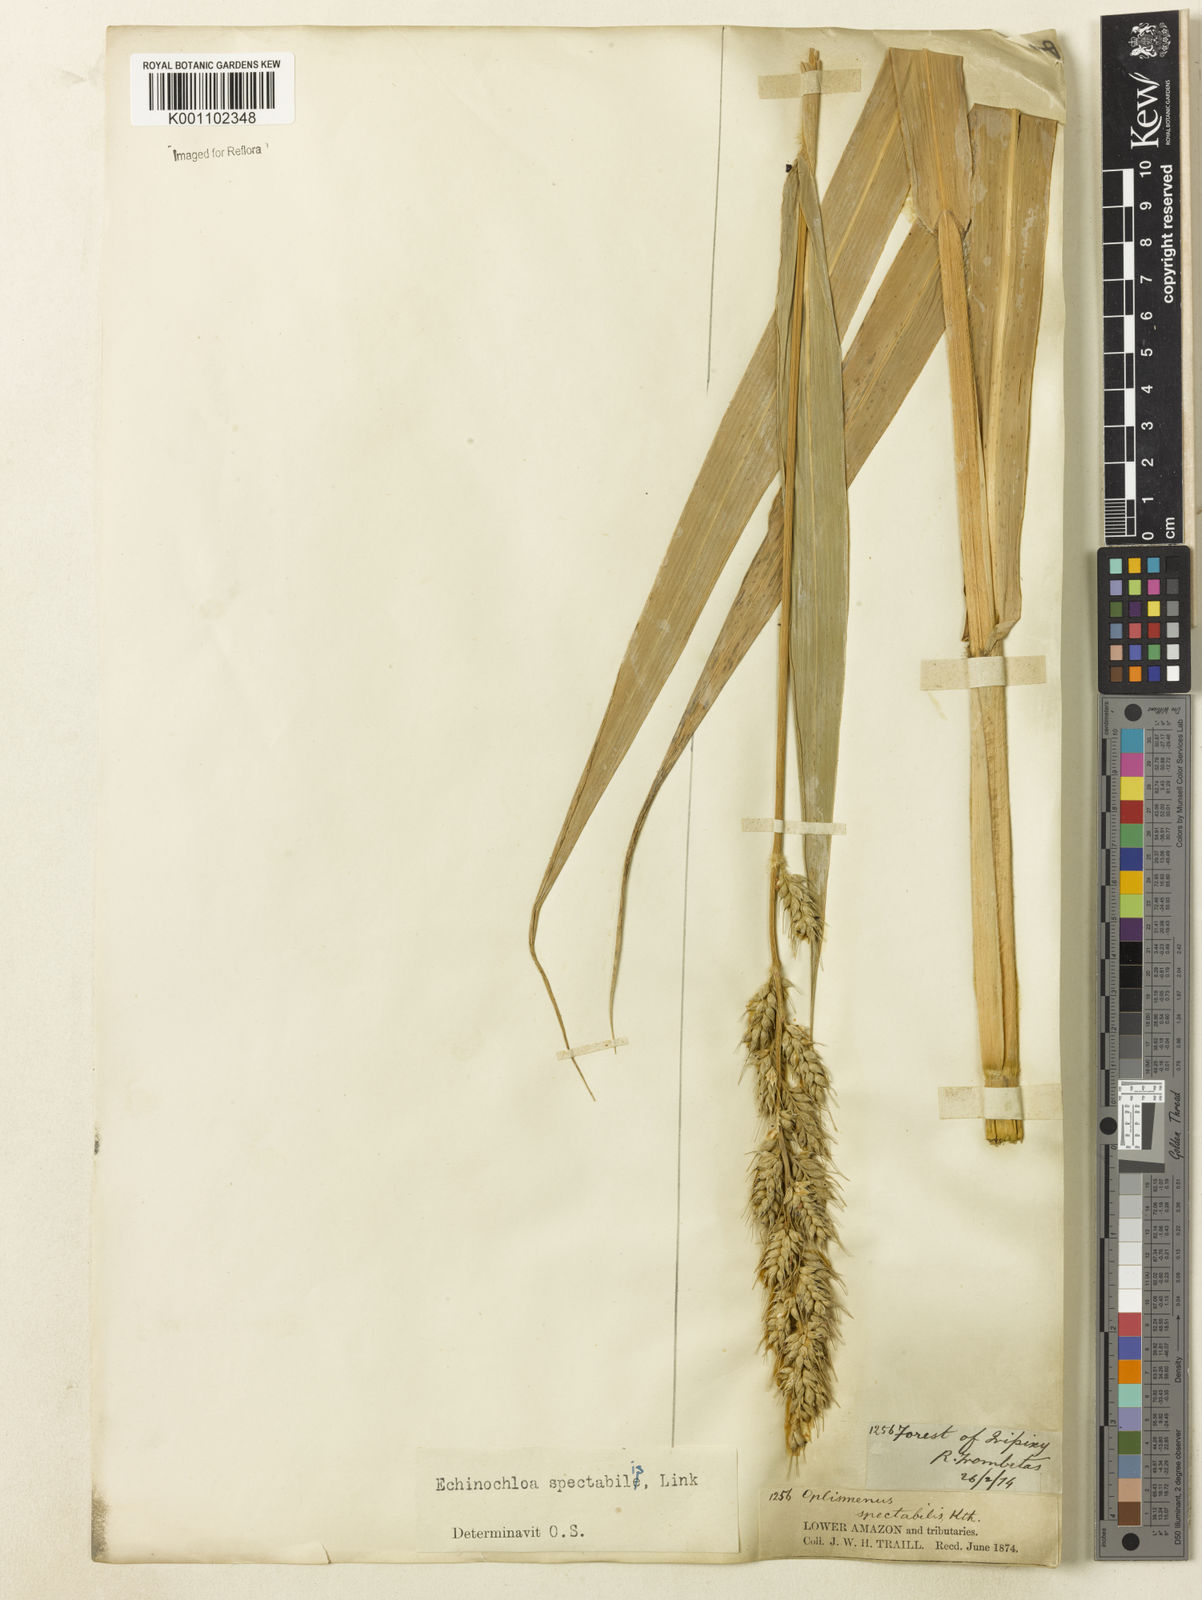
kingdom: Plantae
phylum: Tracheophyta
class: Liliopsida
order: Poales
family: Poaceae
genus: Echinochloa
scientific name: Echinochloa polystachya
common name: Creeping river grass
